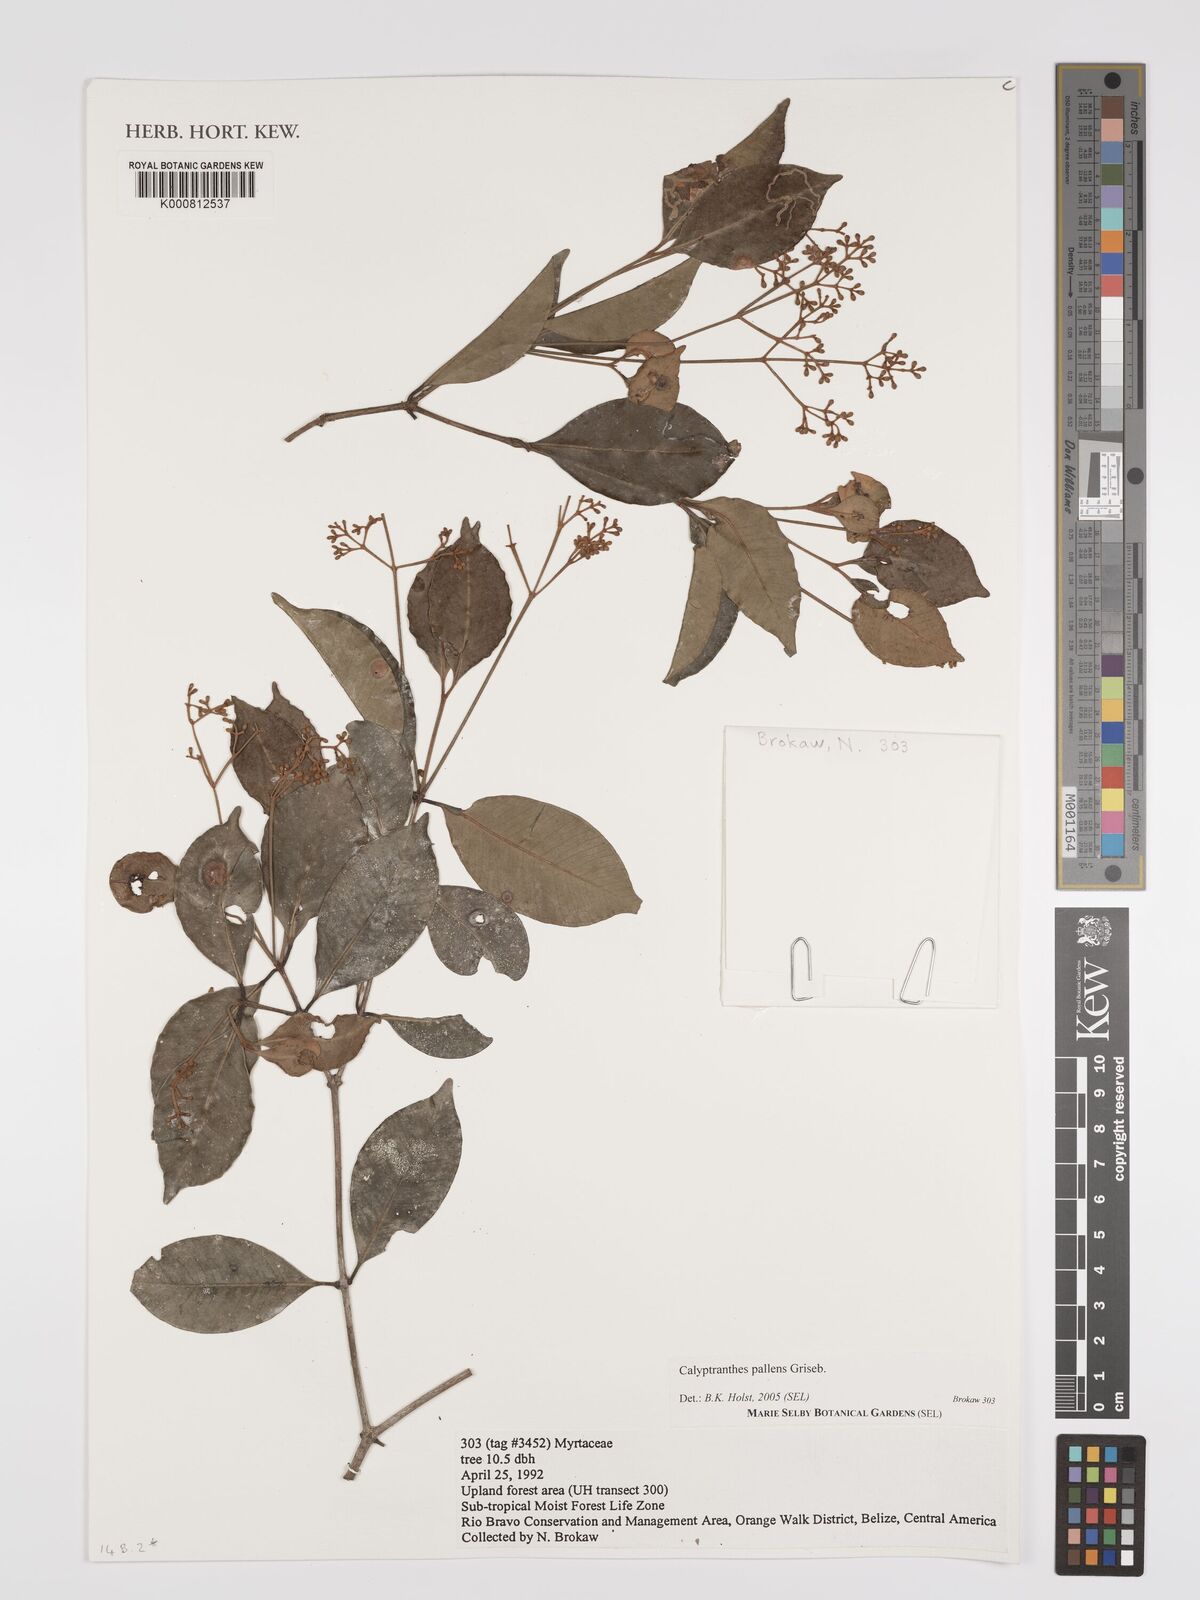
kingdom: Plantae
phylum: Tracheophyta
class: Magnoliopsida
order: Myrtales
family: Myrtaceae
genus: Myrcia
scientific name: Myrcia neopallens
